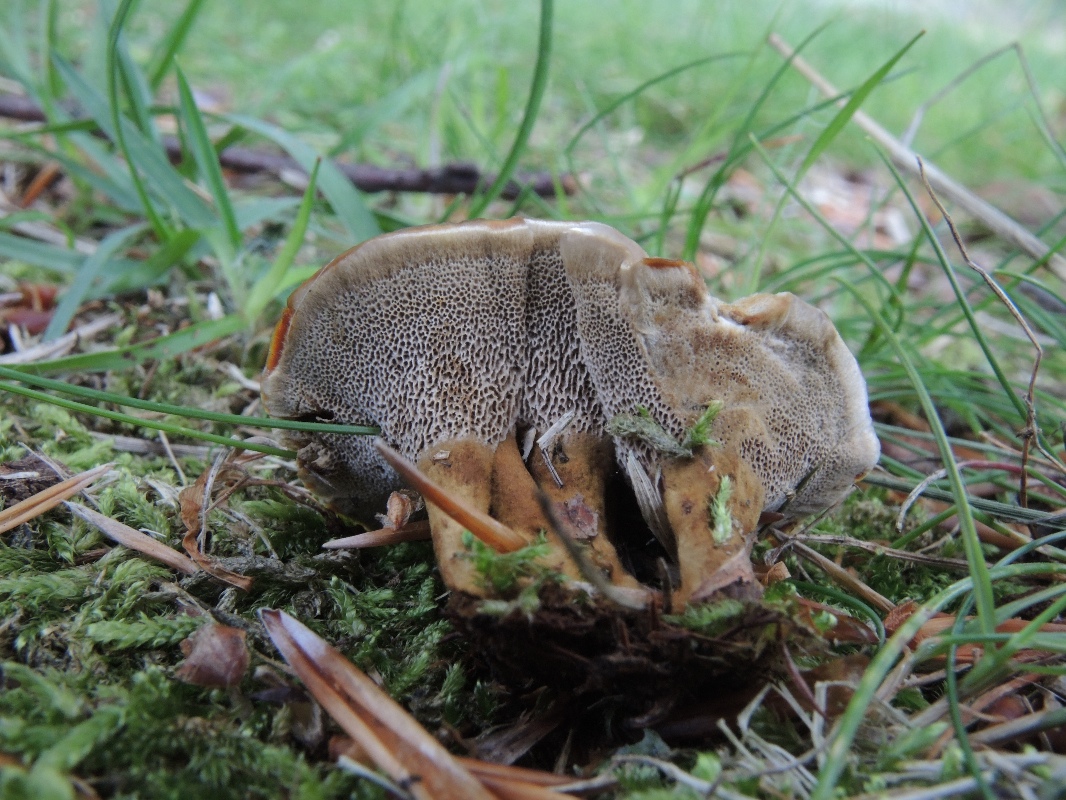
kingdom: Fungi
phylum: Basidiomycota
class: Agaricomycetes
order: Hymenochaetales
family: Hymenochaetaceae
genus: Coltricia
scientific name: Coltricia confluens
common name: park-sandporesvamp
